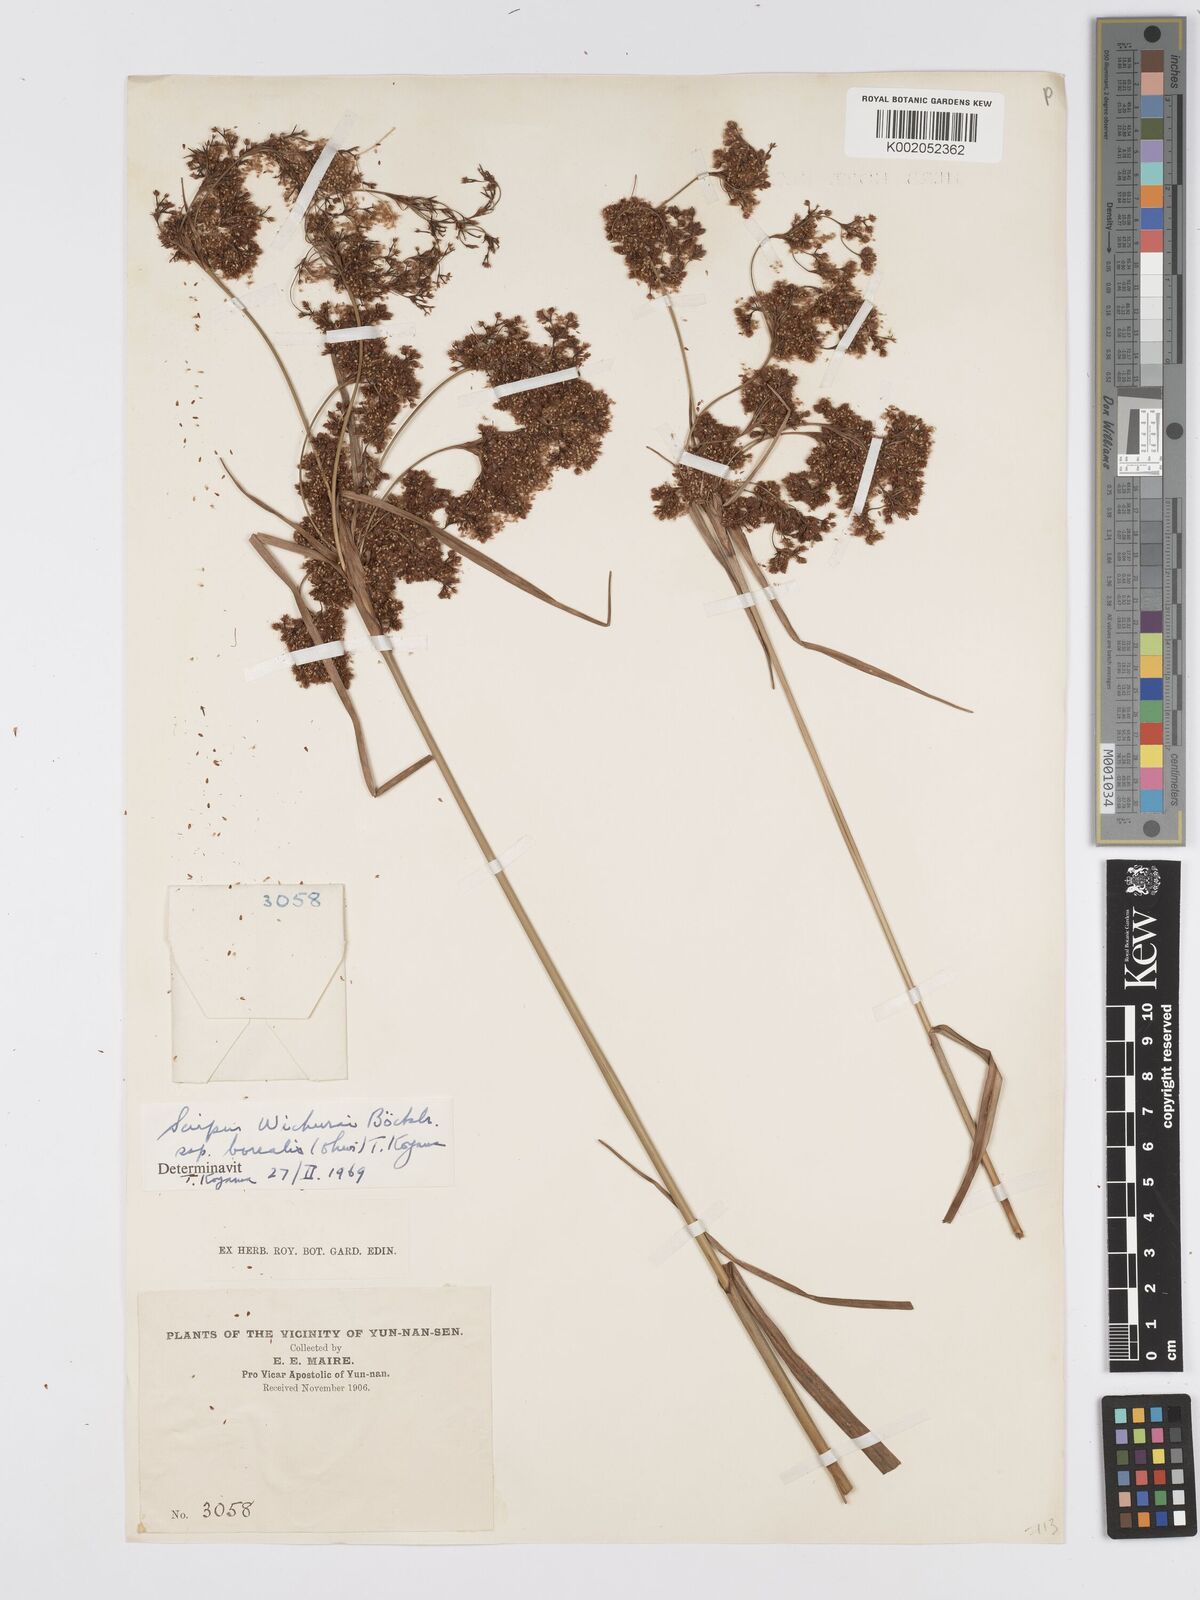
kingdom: Plantae
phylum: Tracheophyta
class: Liliopsida
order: Poales
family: Cyperaceae
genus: Scirpus
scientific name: Scirpus lineatus
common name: Drooping bulrush
